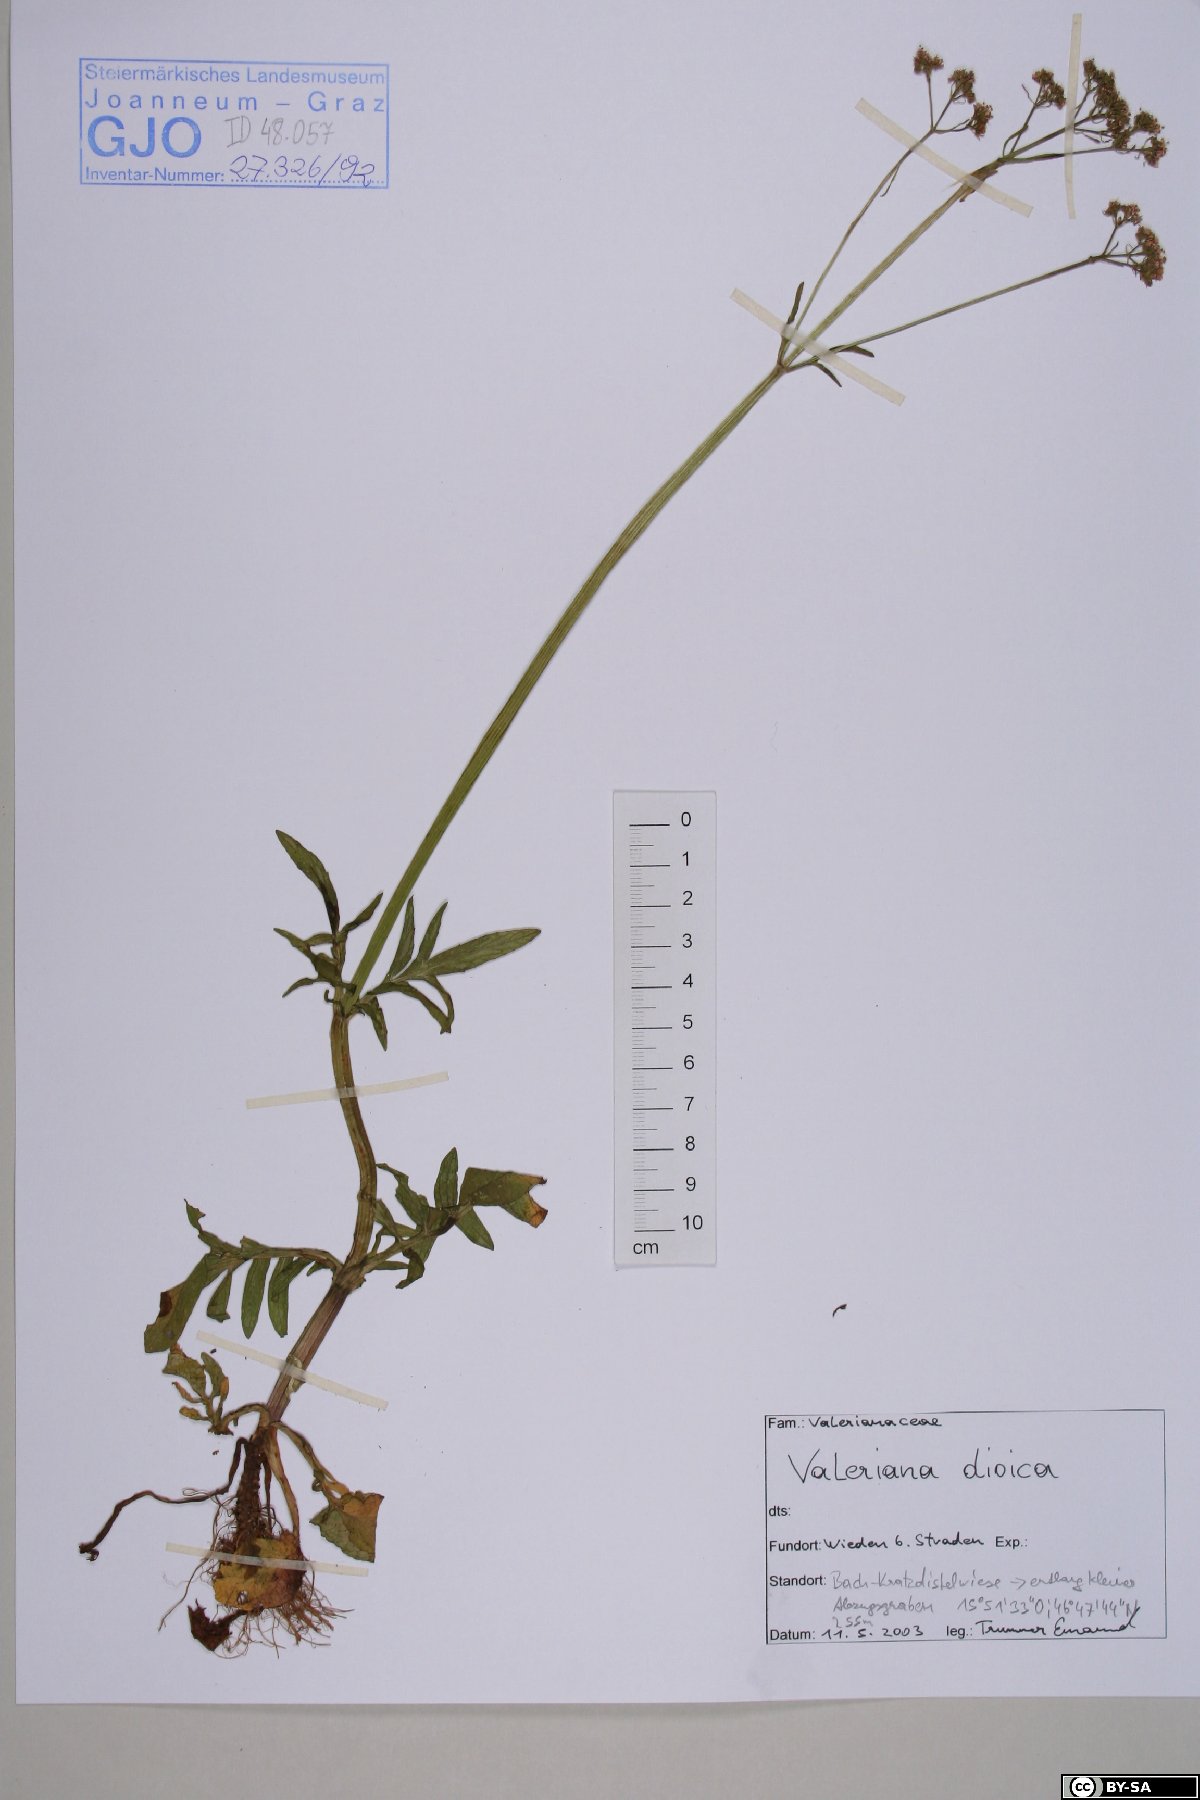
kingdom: Plantae
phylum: Tracheophyta
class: Magnoliopsida
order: Dipsacales
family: Caprifoliaceae
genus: Valeriana
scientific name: Valeriana dioica
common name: Marsh valerian
